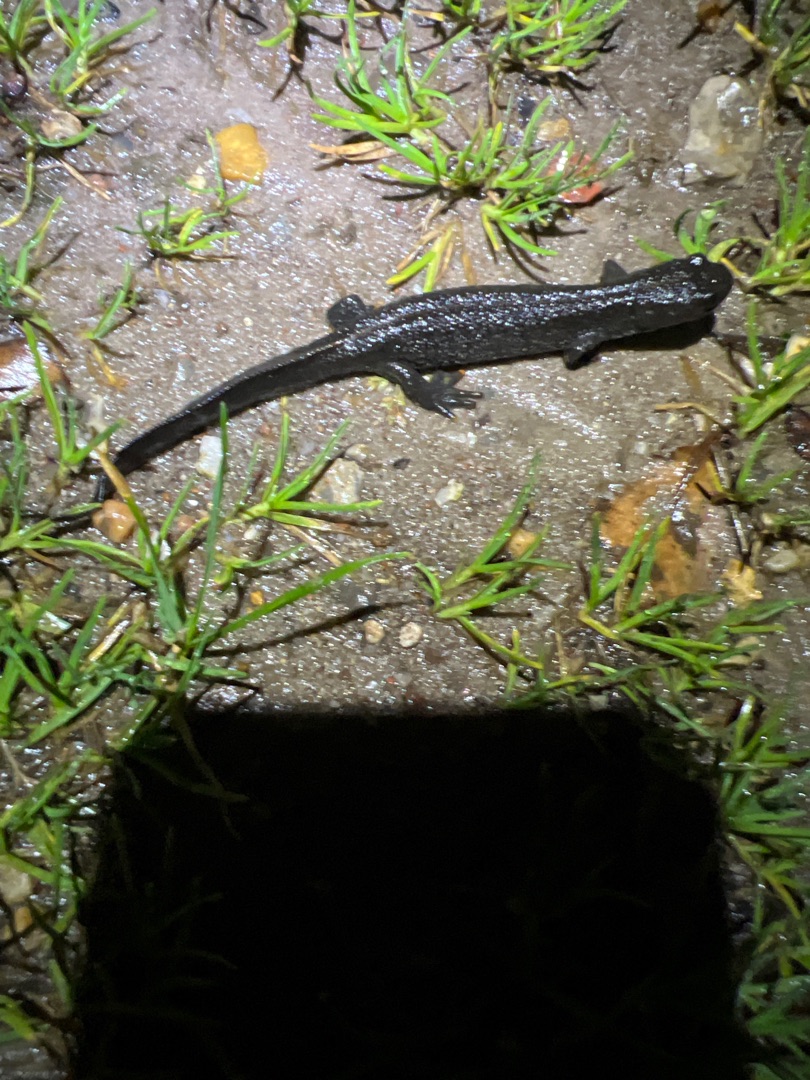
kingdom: Animalia
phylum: Chordata
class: Amphibia
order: Caudata
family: Salamandridae
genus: Triturus
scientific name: Triturus cristatus
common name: Stor vandsalamander
